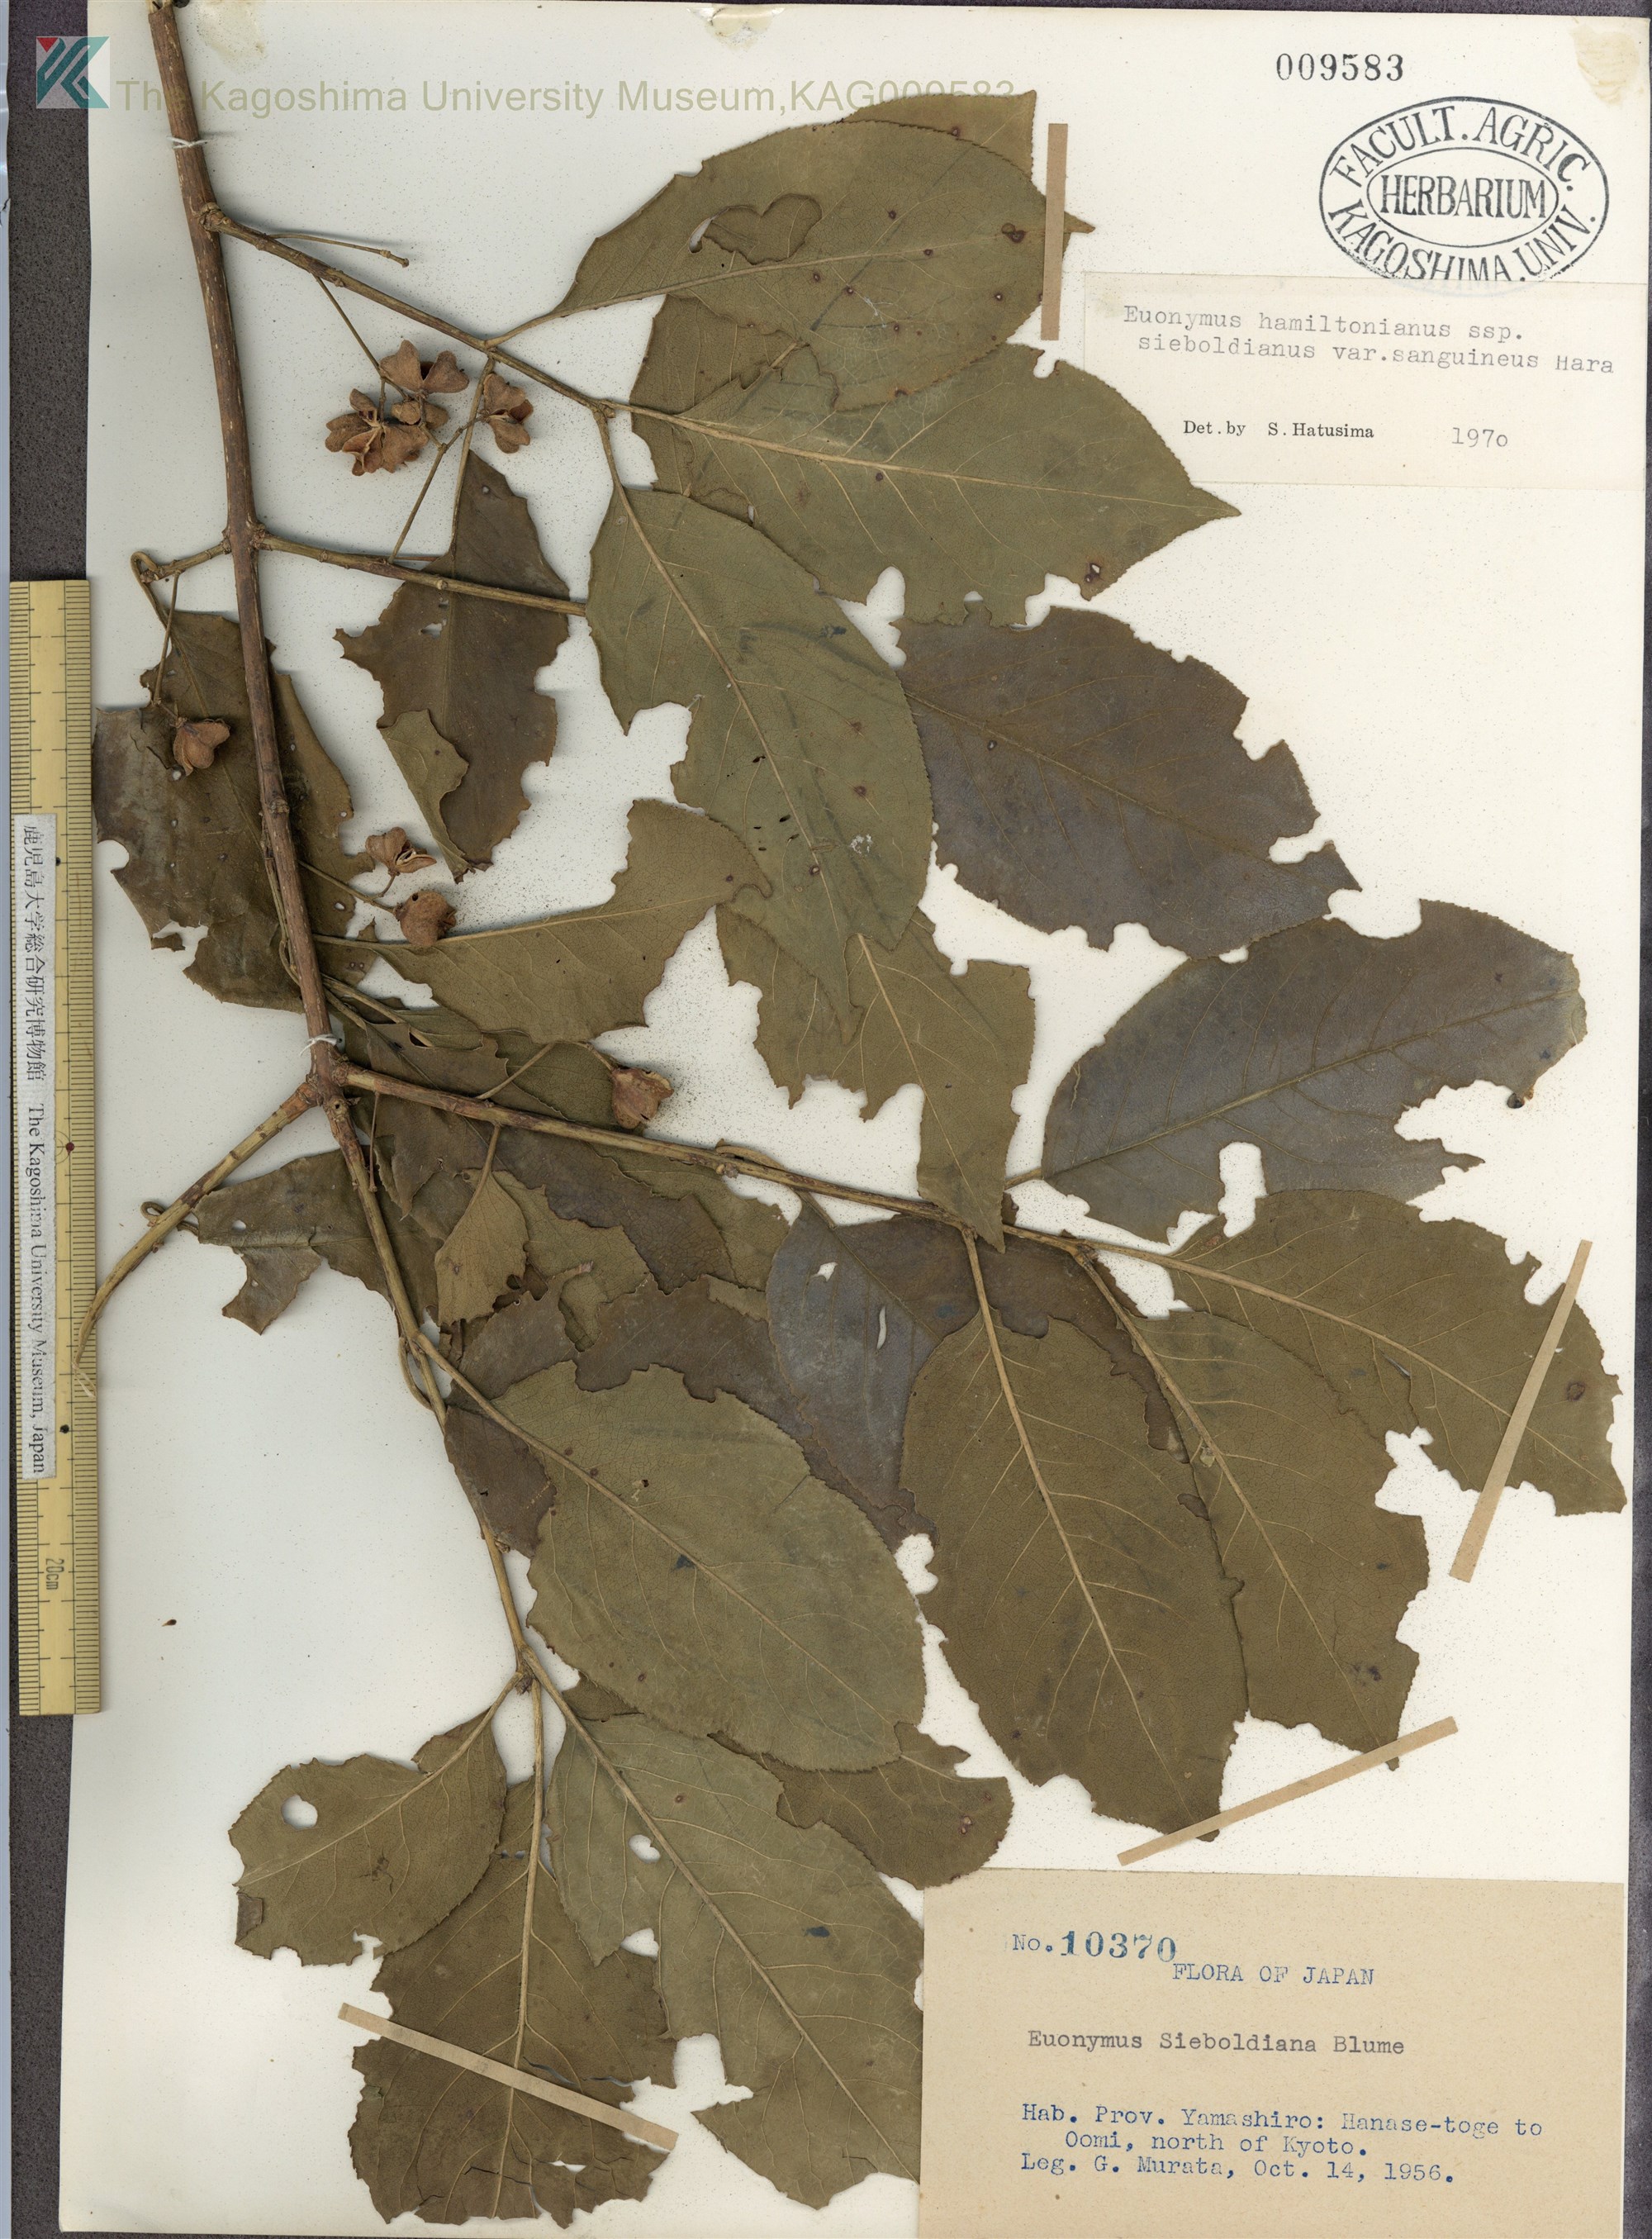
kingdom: Plantae
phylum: Tracheophyta
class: Magnoliopsida
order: Celastrales
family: Celastraceae
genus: Euonymus
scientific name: Euonymus hamiltonianus
